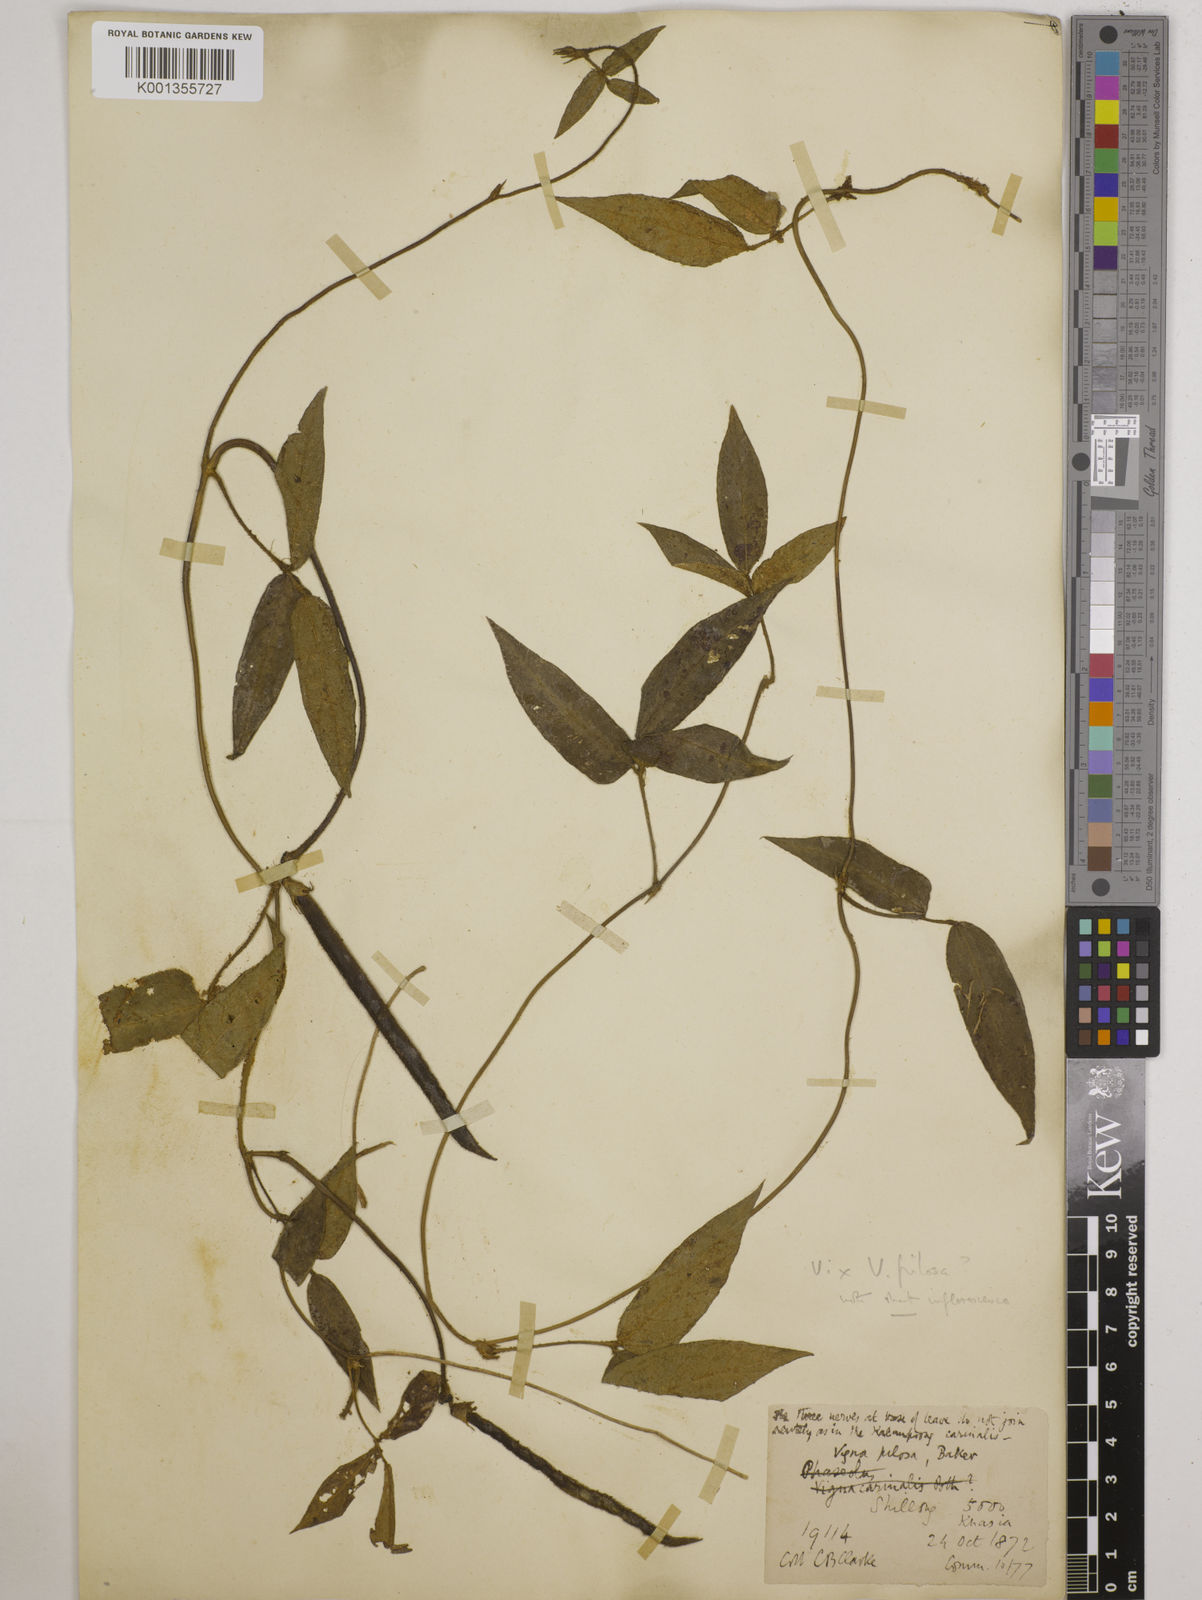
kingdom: Plantae
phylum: Tracheophyta
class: Magnoliopsida
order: Fabales
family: Fabaceae
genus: Vigna
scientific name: Vigna vexillata
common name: Zombi pea
